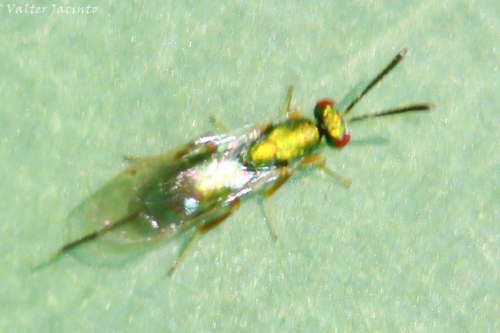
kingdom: Animalia
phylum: Arthropoda
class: Insecta
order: Hymenoptera
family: Torymidae
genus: Torymus
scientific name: Torymus
